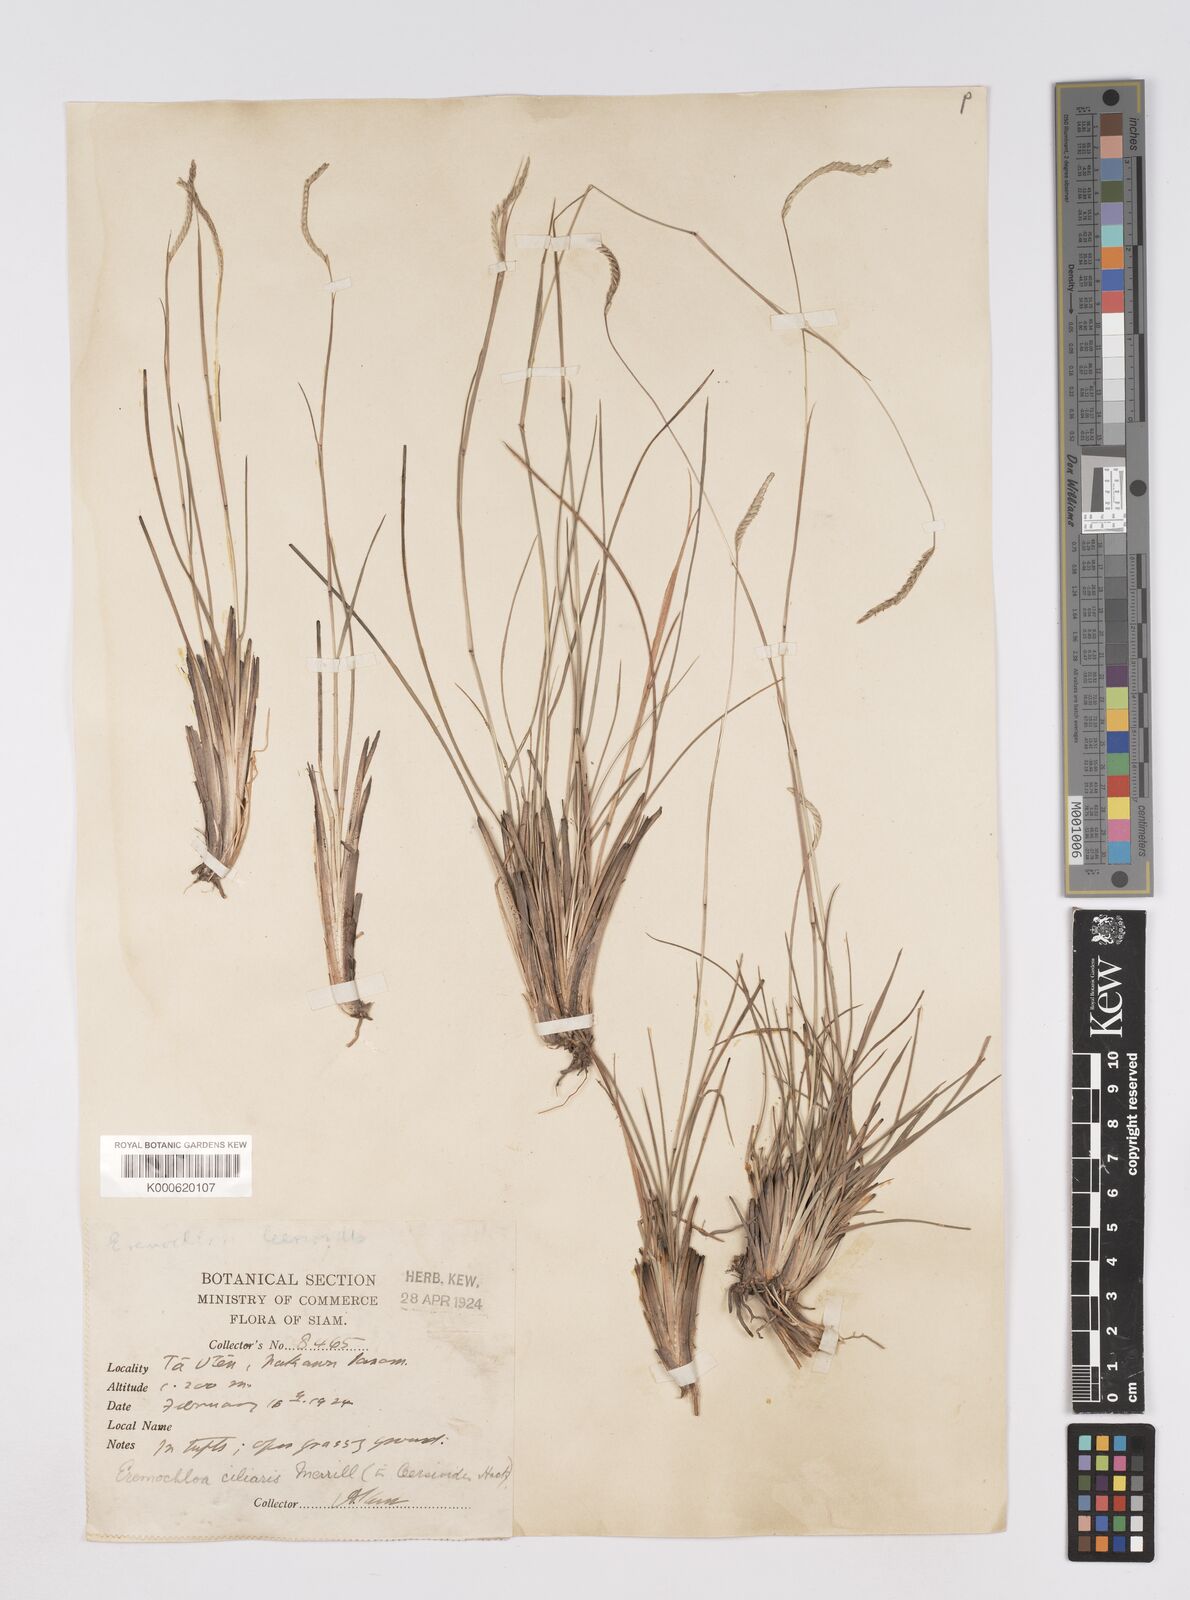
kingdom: Plantae
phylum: Tracheophyta
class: Liliopsida
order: Poales
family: Poaceae
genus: Eremochloa
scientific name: Eremochloa ciliaris
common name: Fringed centipede grass
